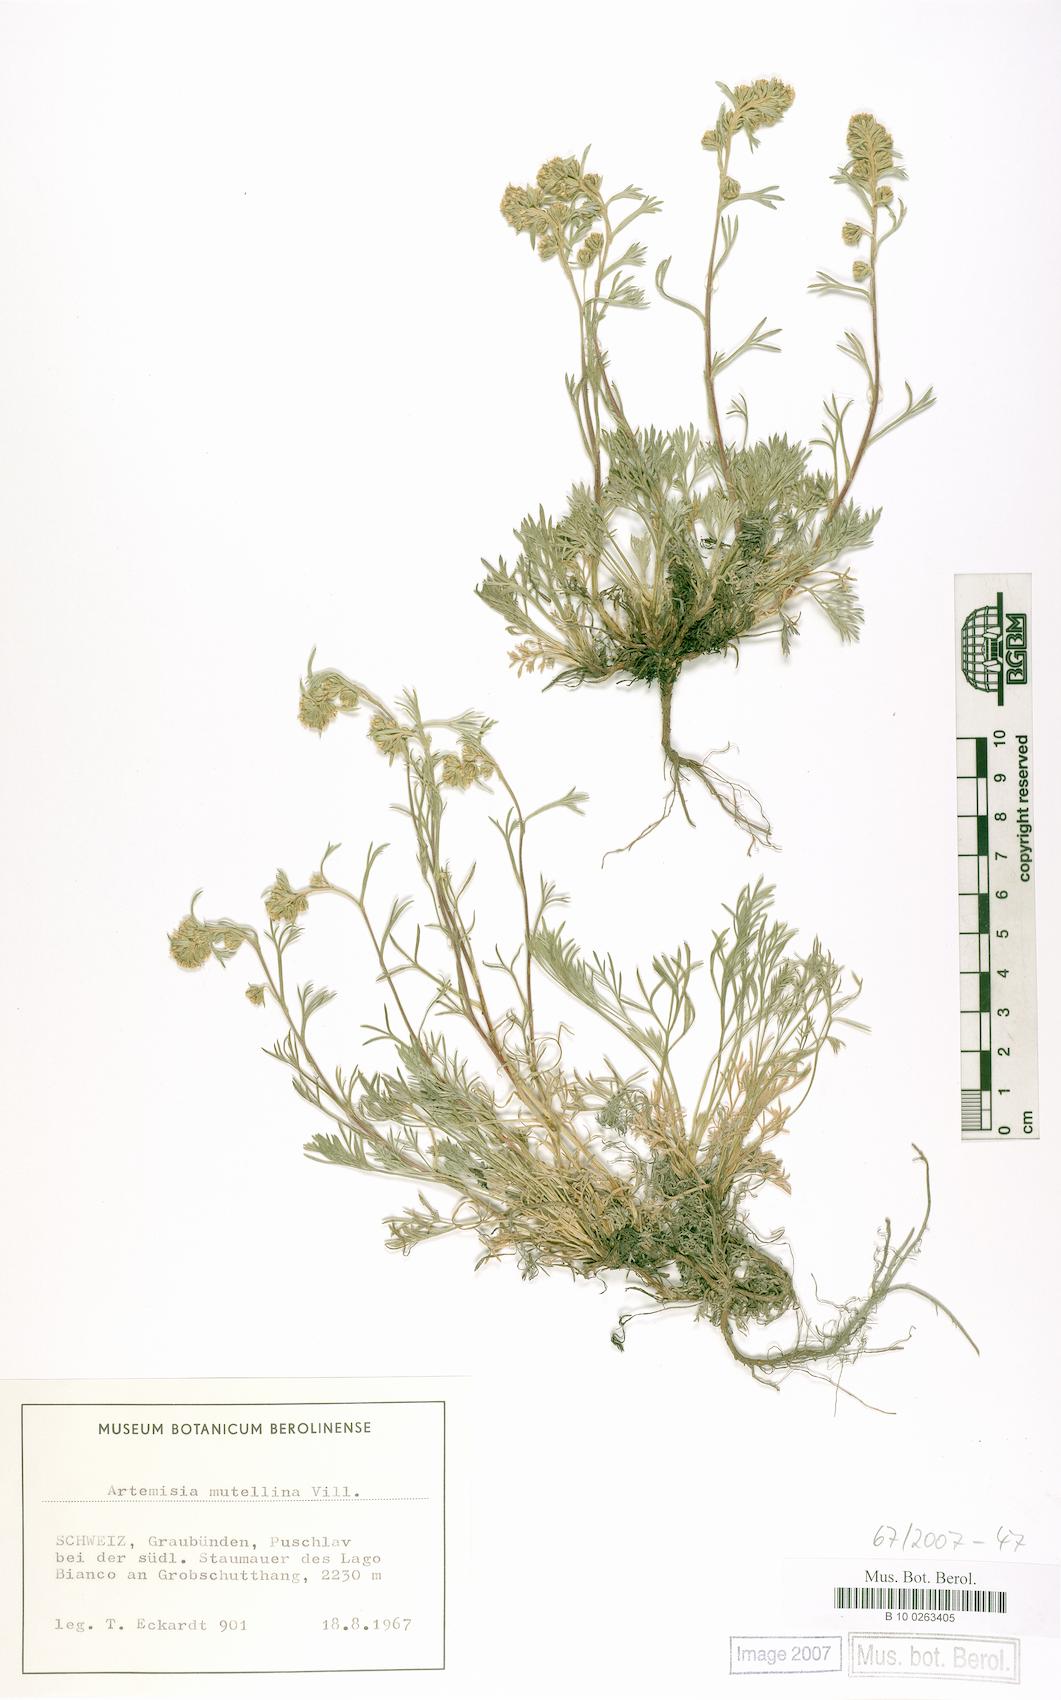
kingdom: Plantae
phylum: Tracheophyta
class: Magnoliopsida
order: Asterales
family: Asteraceae
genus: Artemisia
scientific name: Artemisia mutellina
